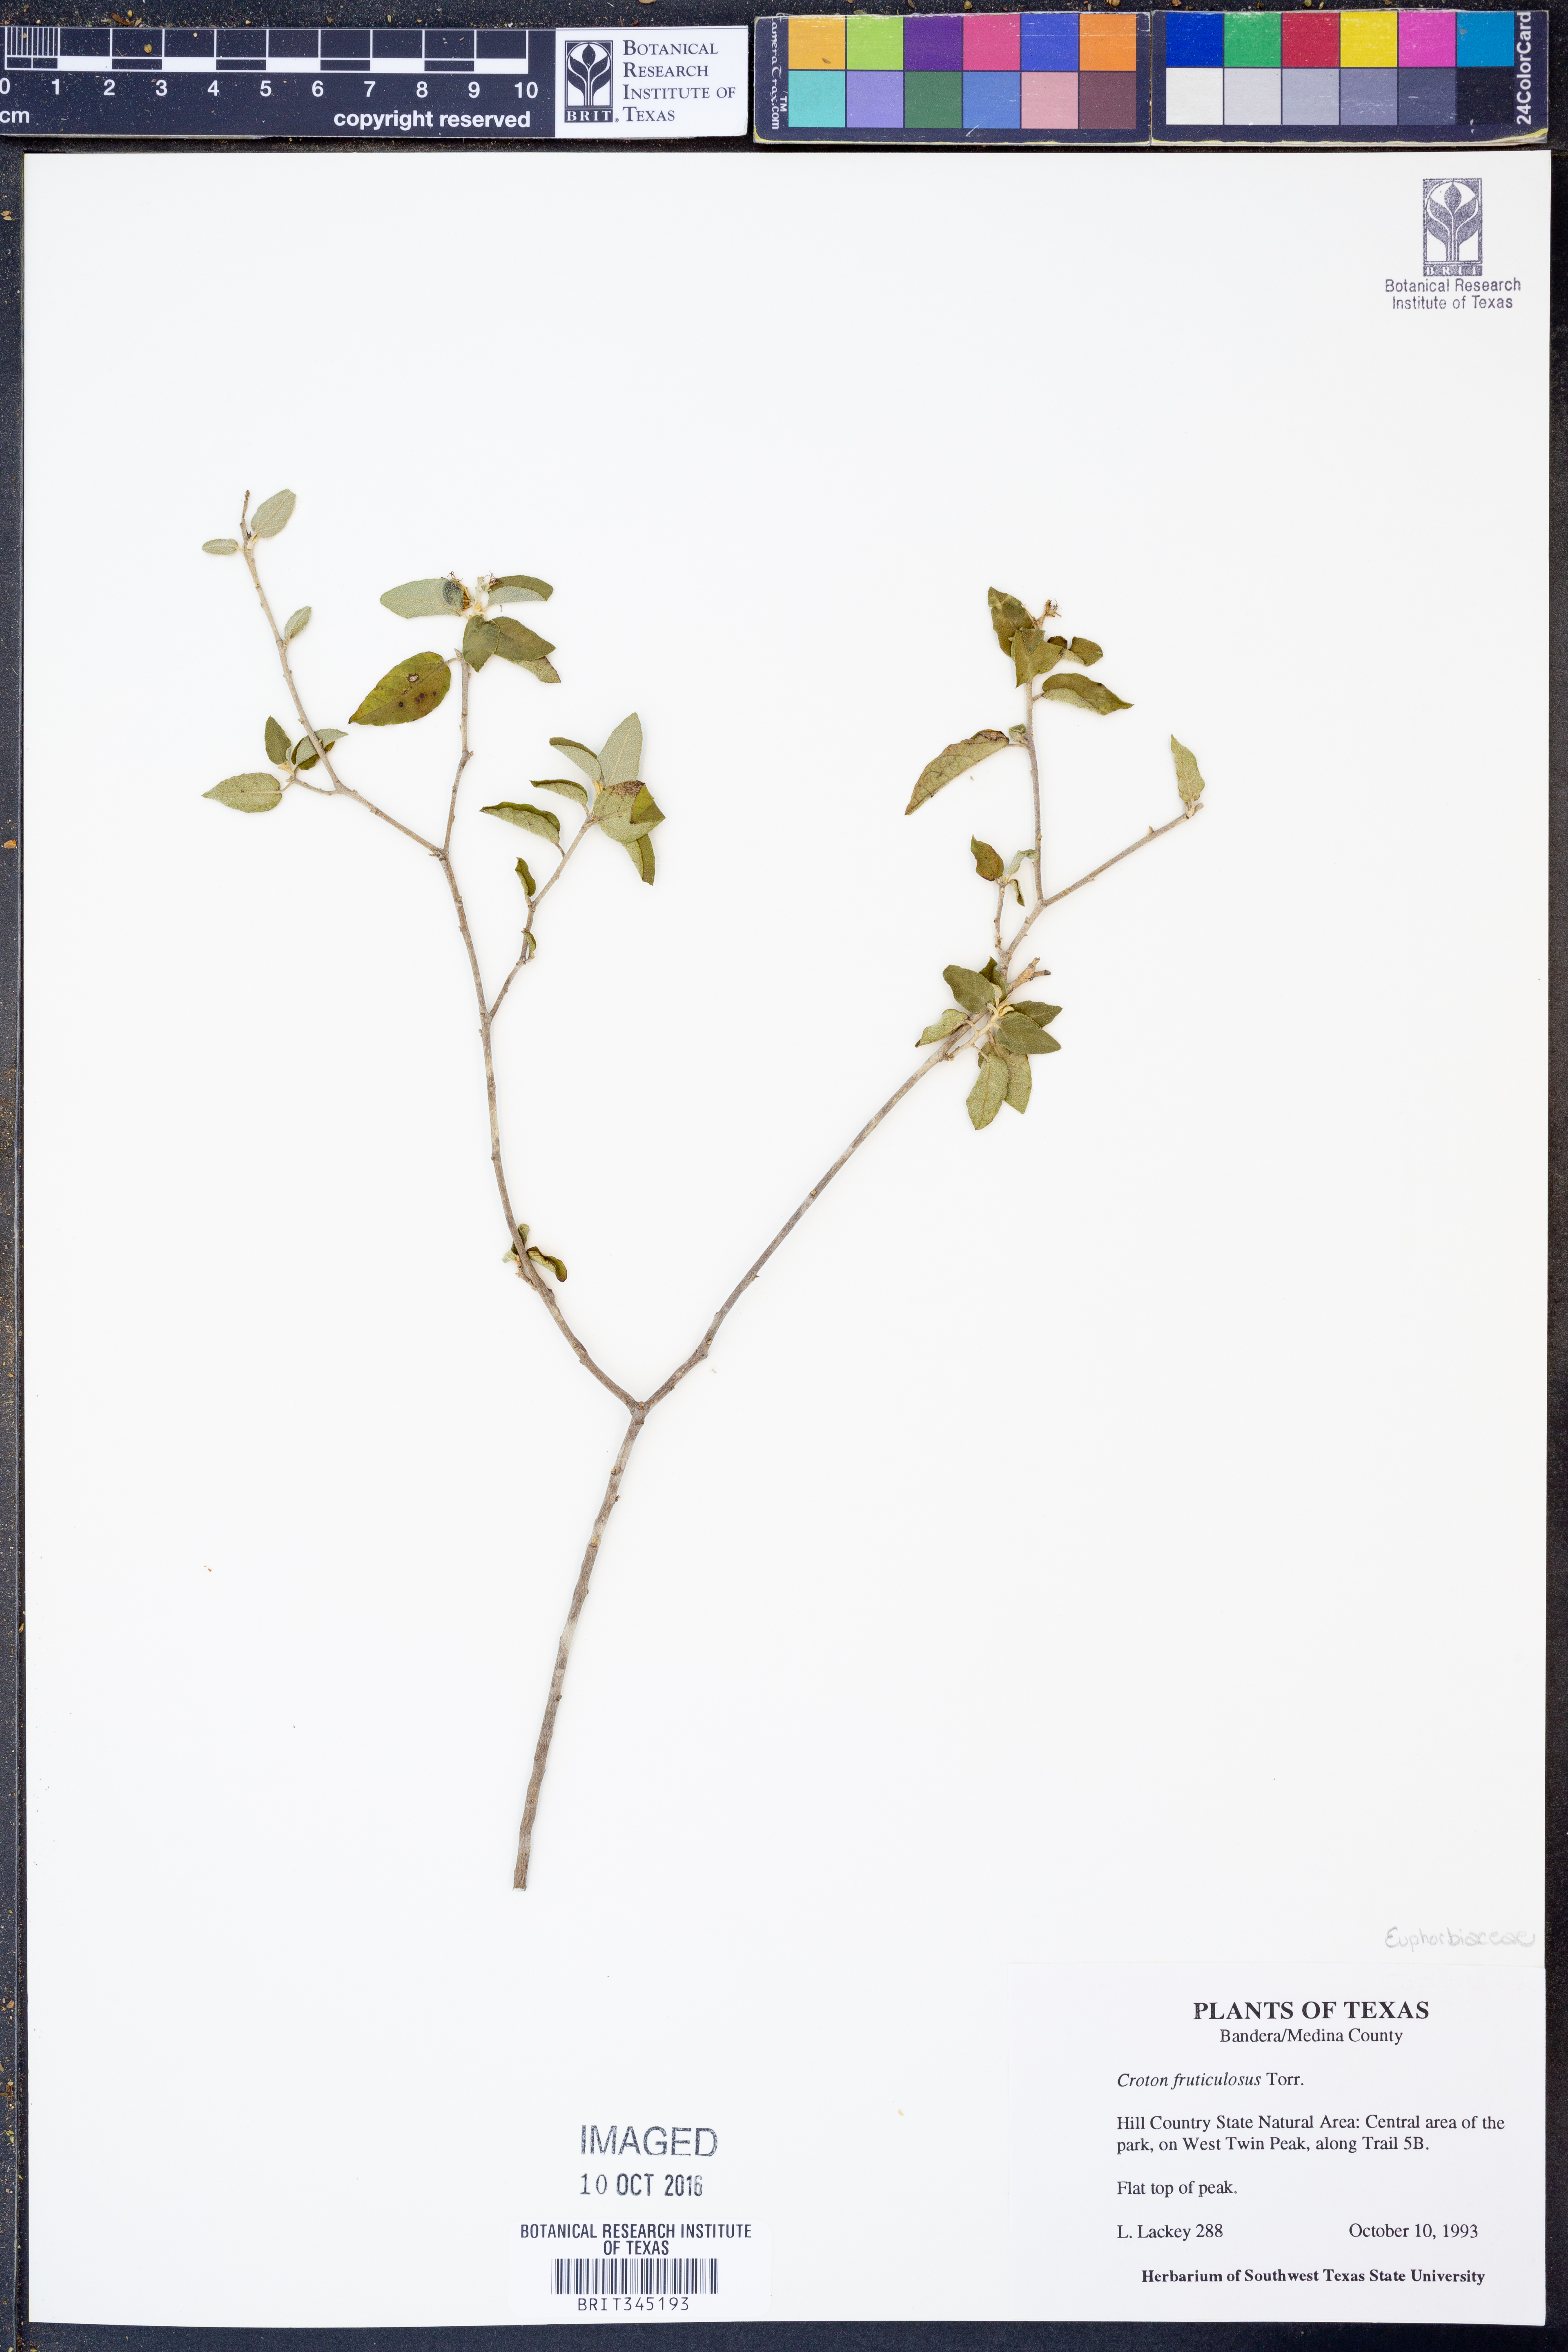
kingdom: Plantae
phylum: Tracheophyta
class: Magnoliopsida
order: Malpighiales
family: Euphorbiaceae
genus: Croton
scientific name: Croton fruticulosus
